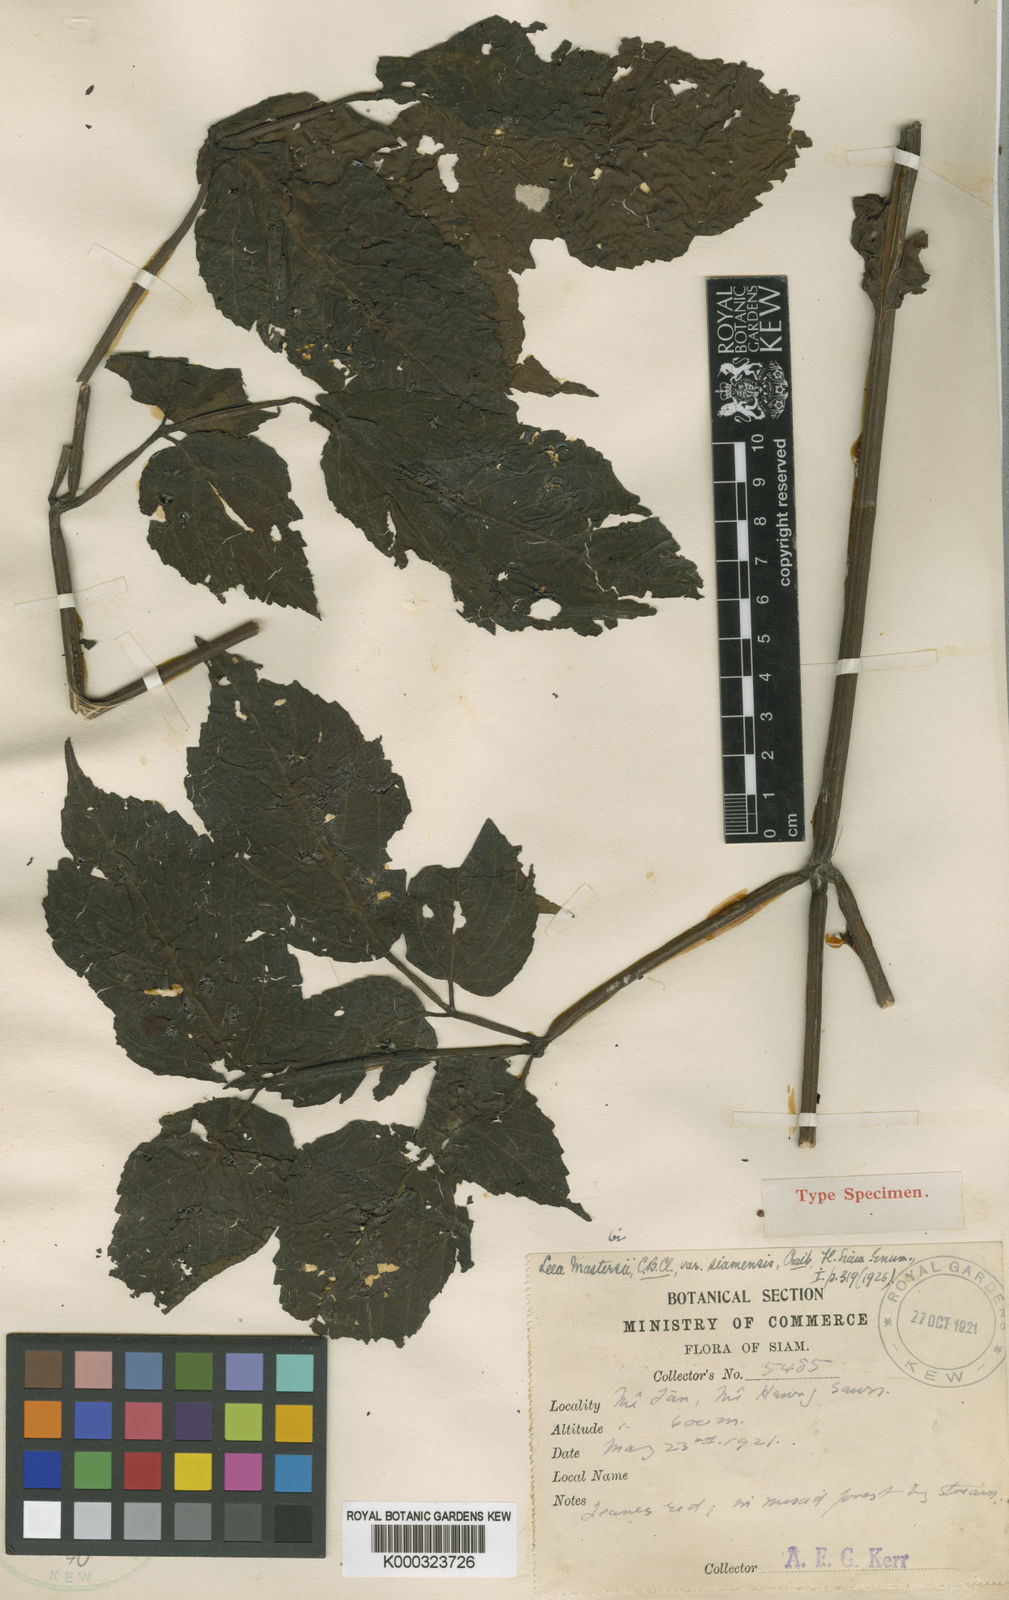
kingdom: Plantae
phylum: Tracheophyta
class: Magnoliopsida
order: Vitales
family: Vitaceae
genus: Leea
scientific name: Leea setuligera
